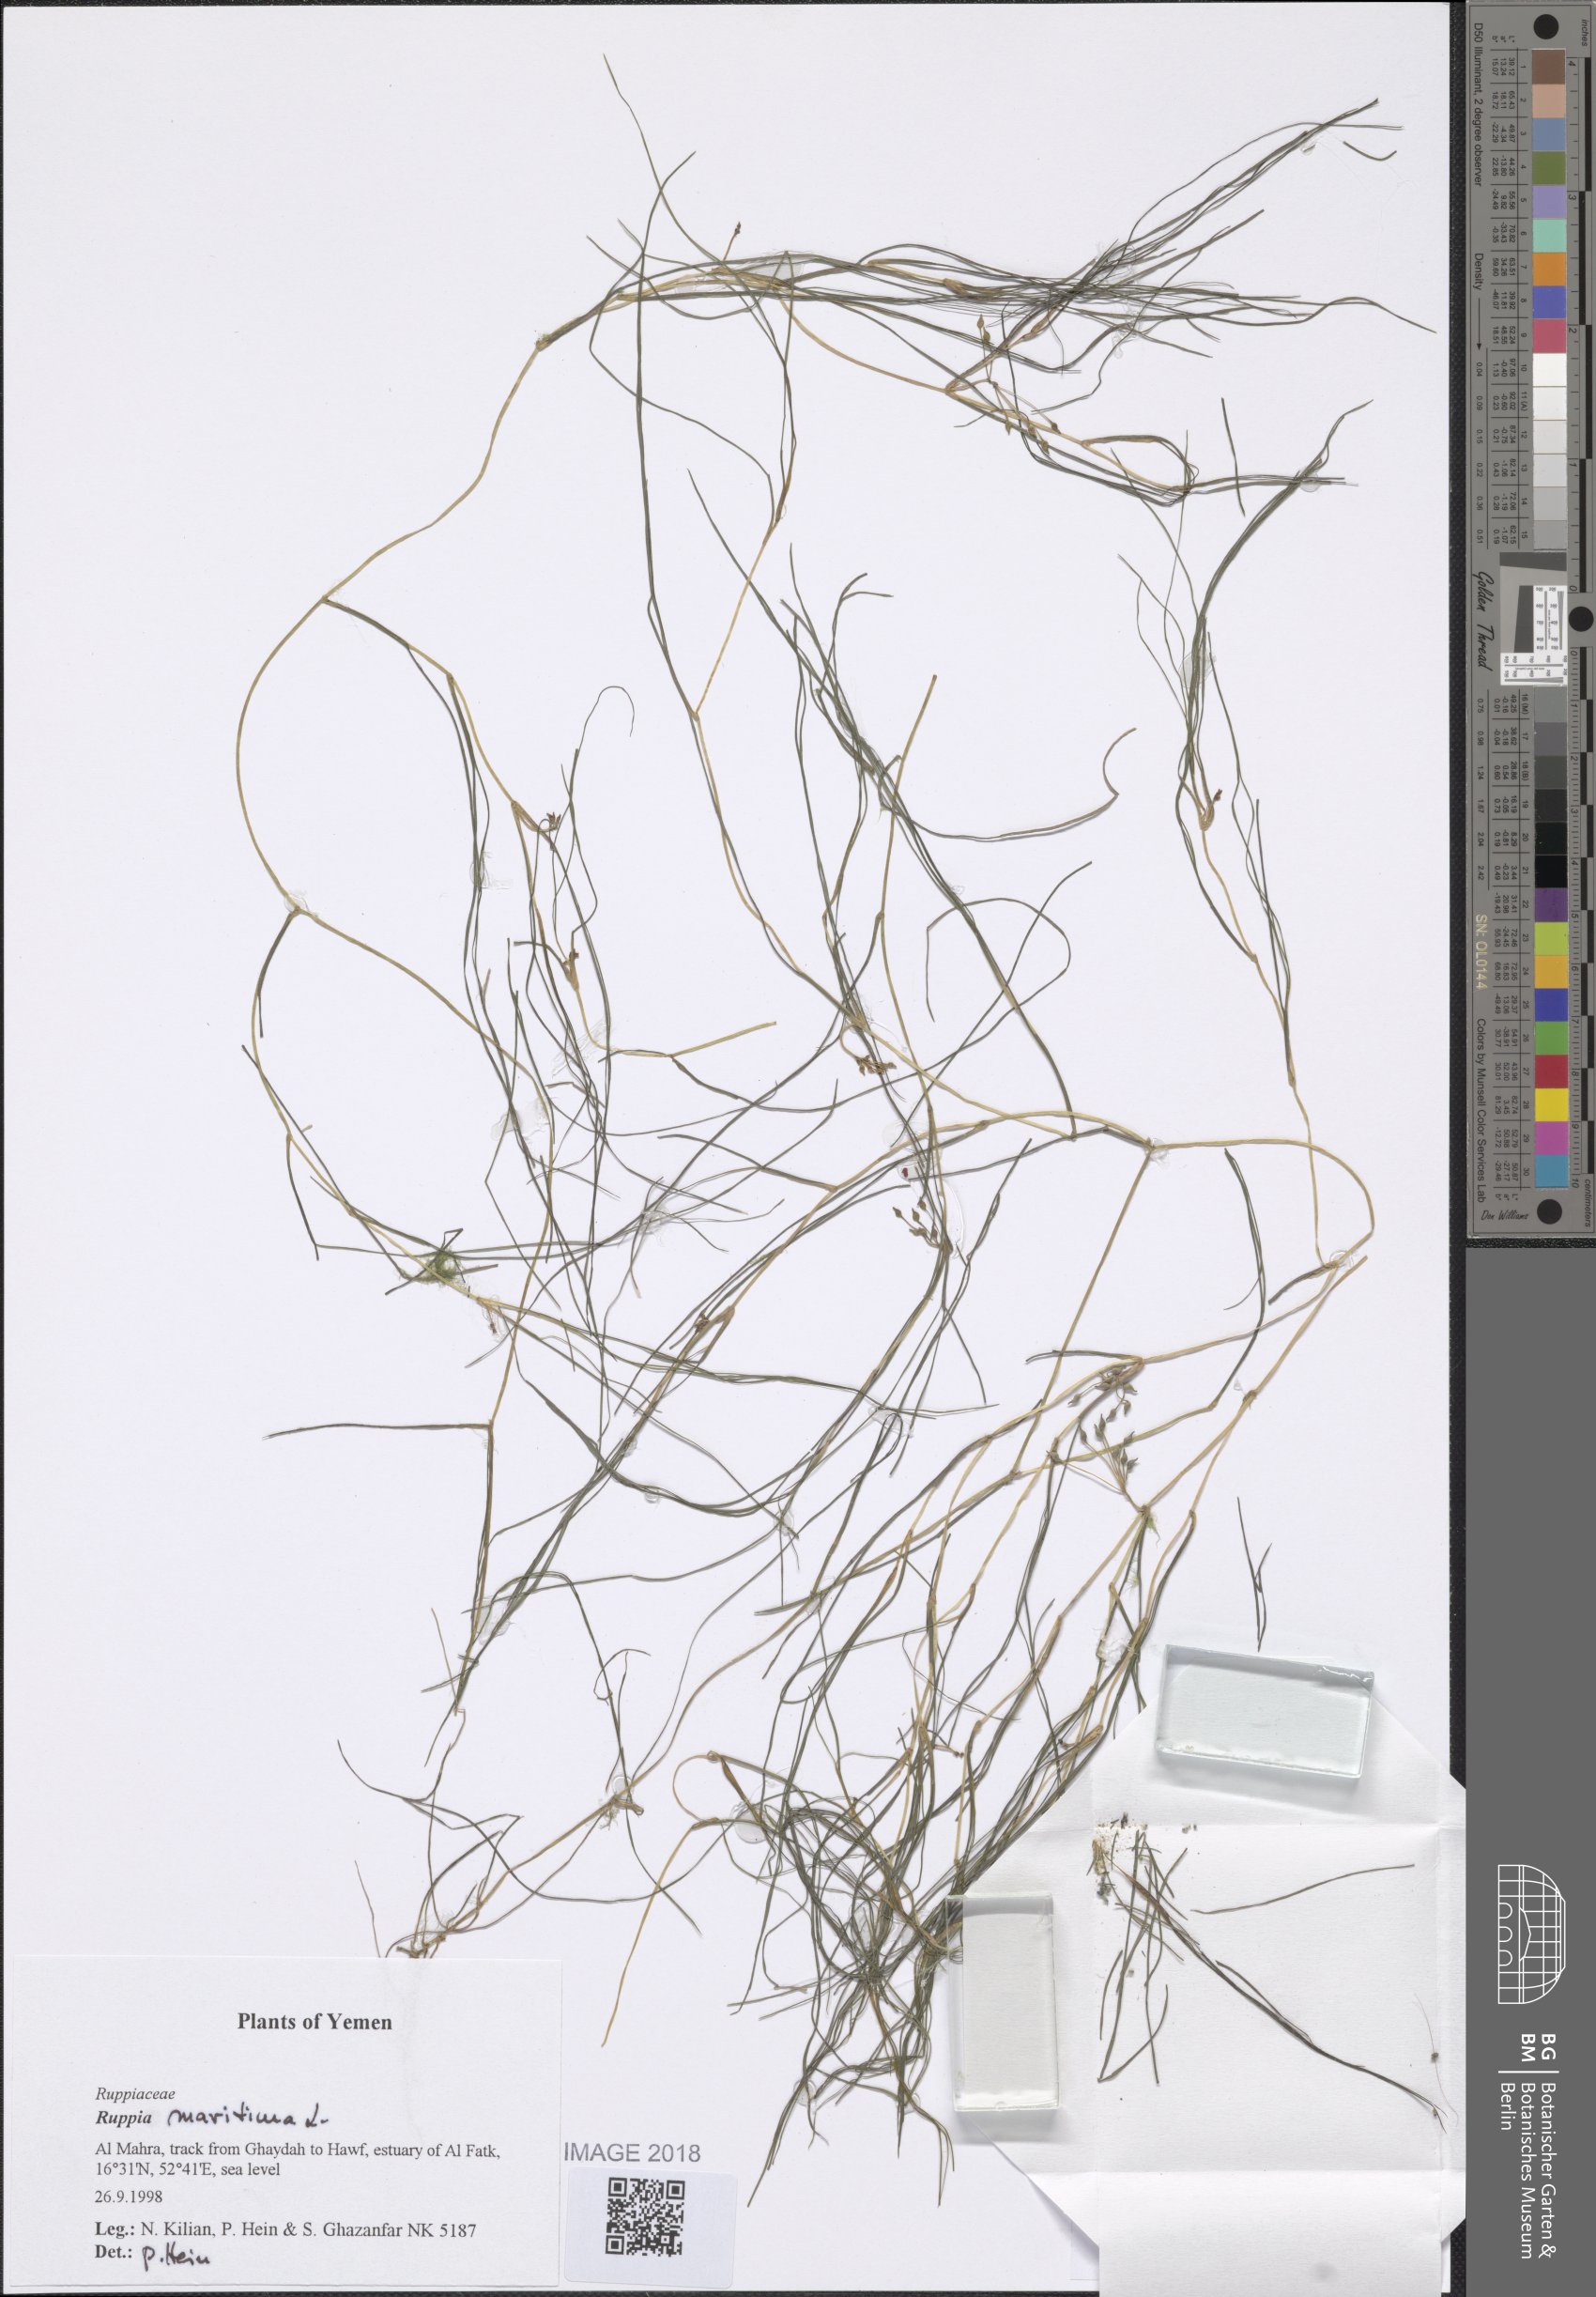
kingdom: Plantae
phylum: Tracheophyta
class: Liliopsida
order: Alismatales
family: Ruppiaceae
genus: Ruppia
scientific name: Ruppia maritima
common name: Beaked tasselweed
